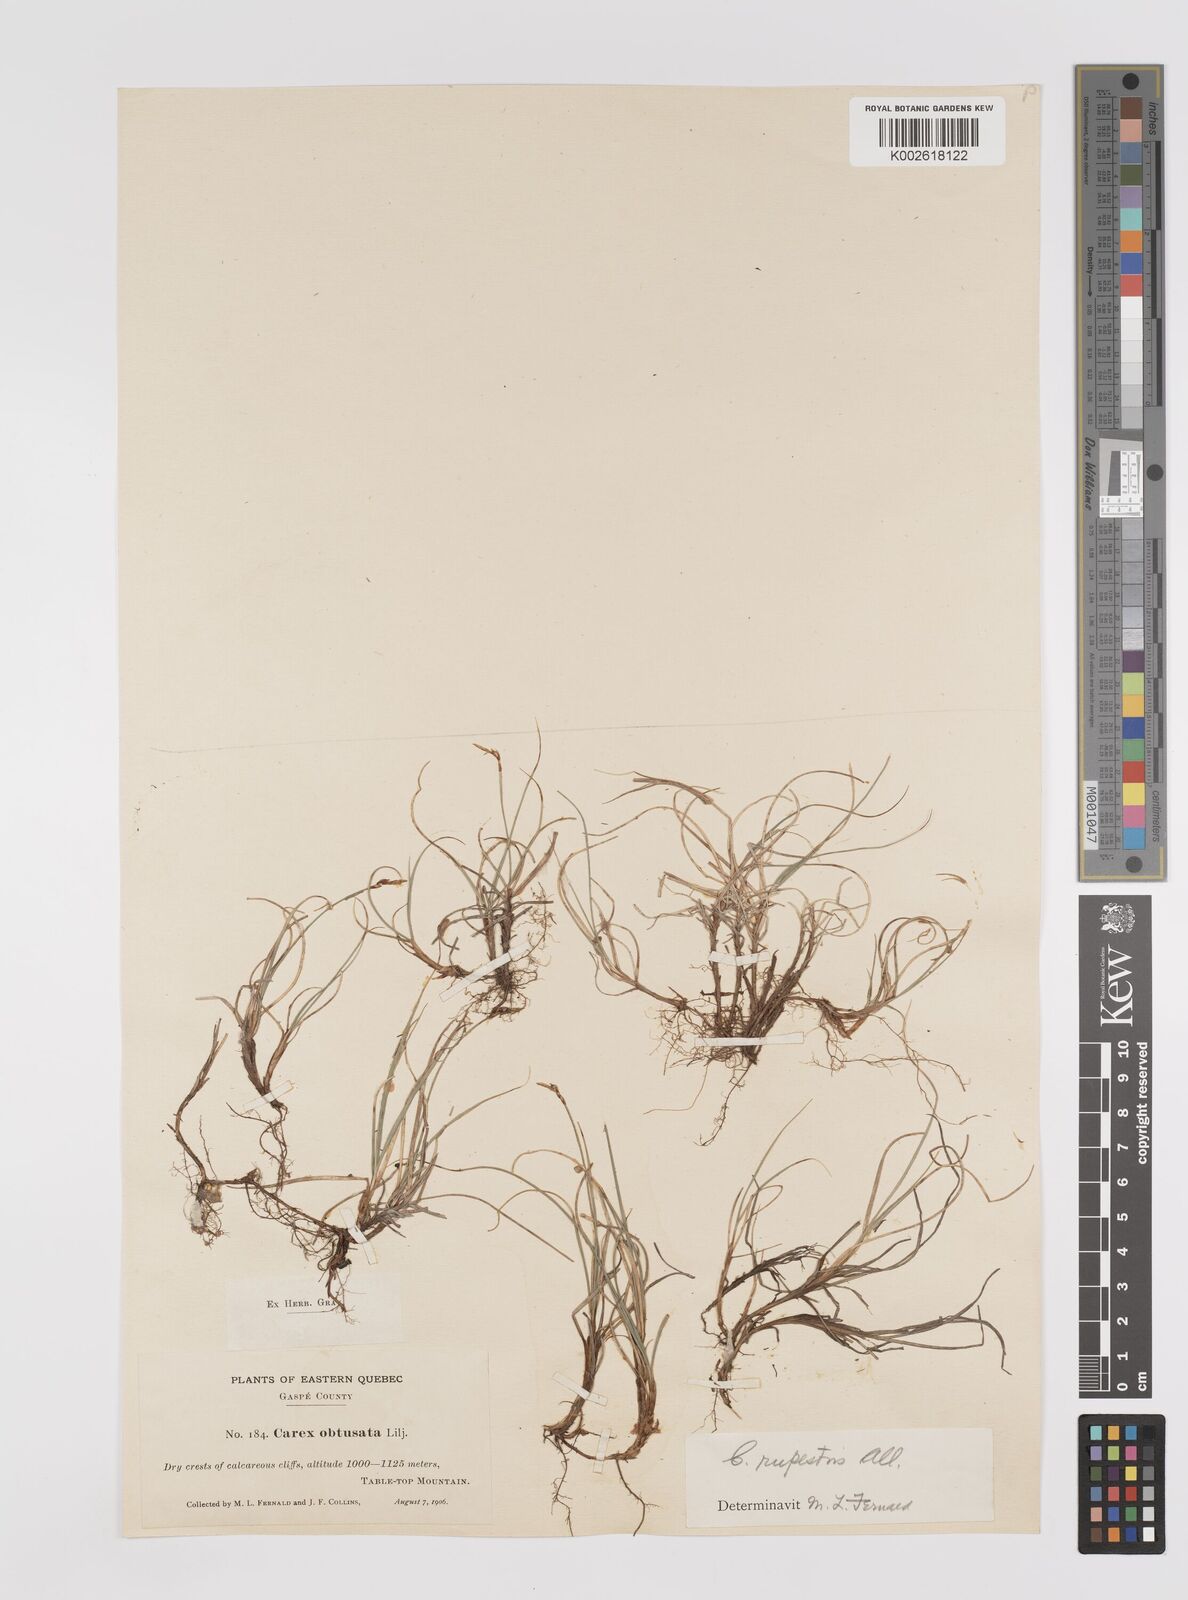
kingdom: Plantae
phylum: Tracheophyta
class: Liliopsida
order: Poales
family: Cyperaceae
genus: Carex
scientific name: Carex rupestris
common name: Rock sedge
